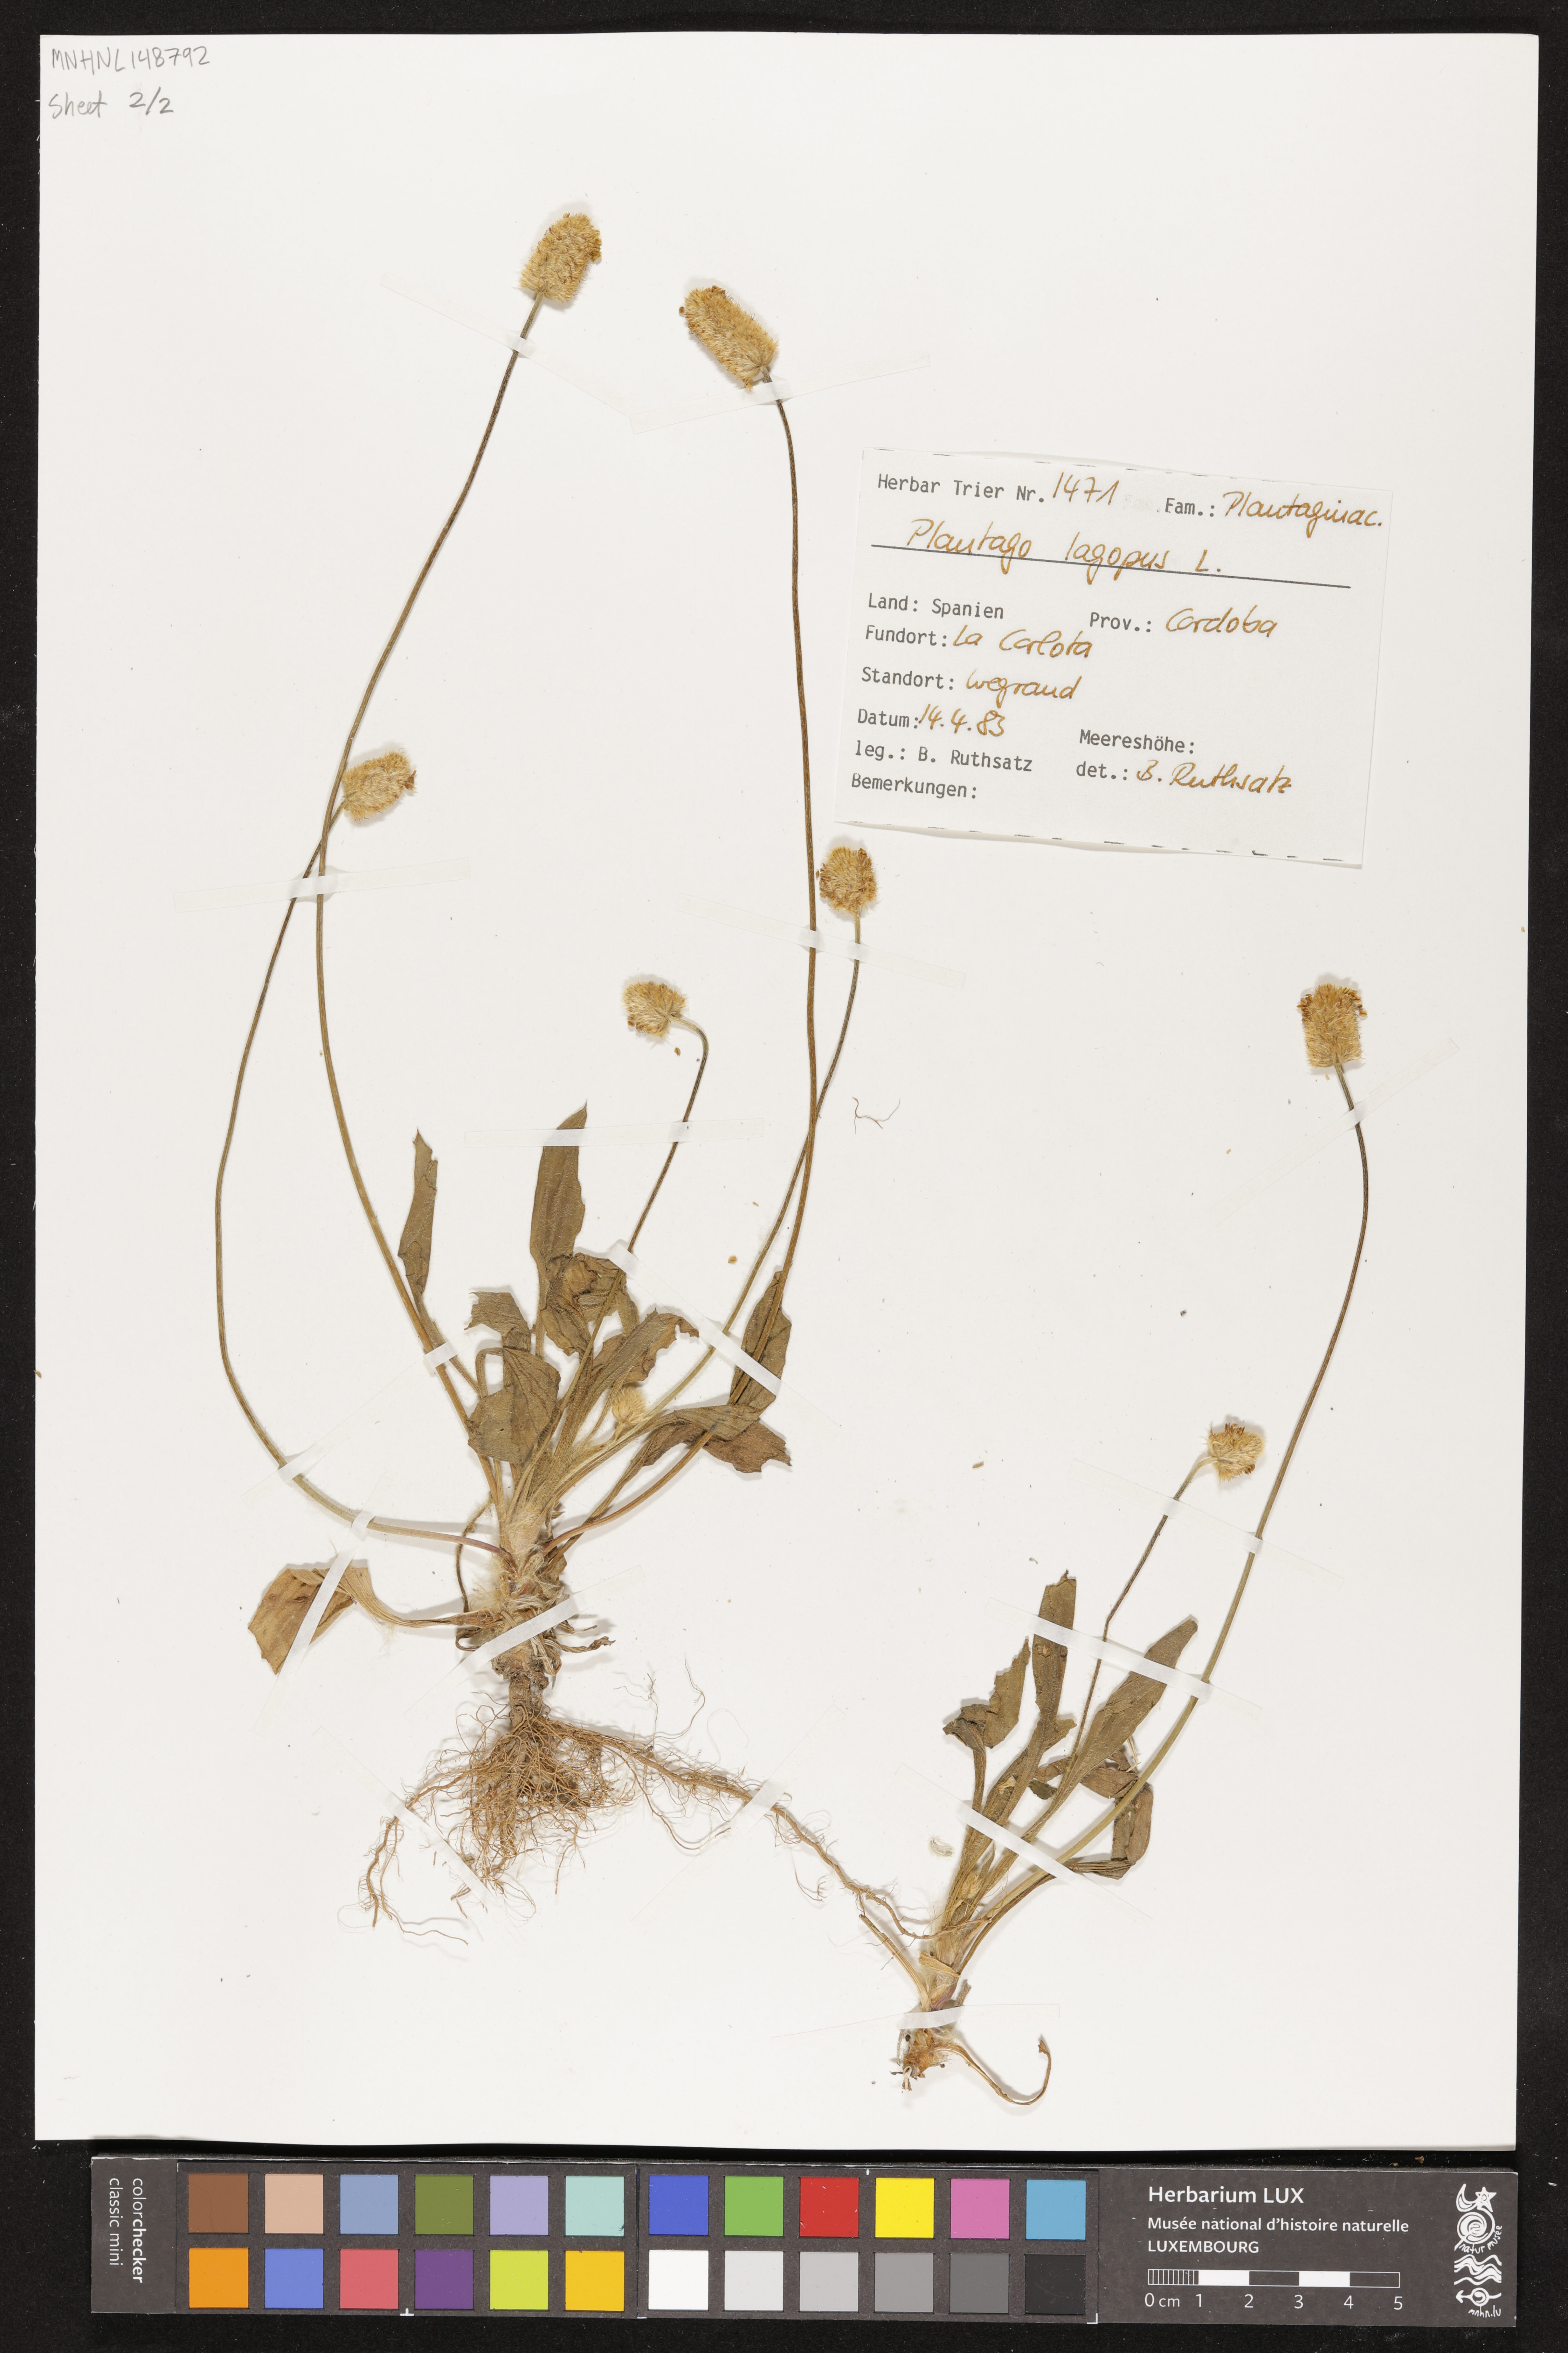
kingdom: Plantae
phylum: Tracheophyta
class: Magnoliopsida
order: Lamiales
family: Plantaginaceae
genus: Plantago
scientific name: Plantago lagopus
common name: Hare-foot plantain
